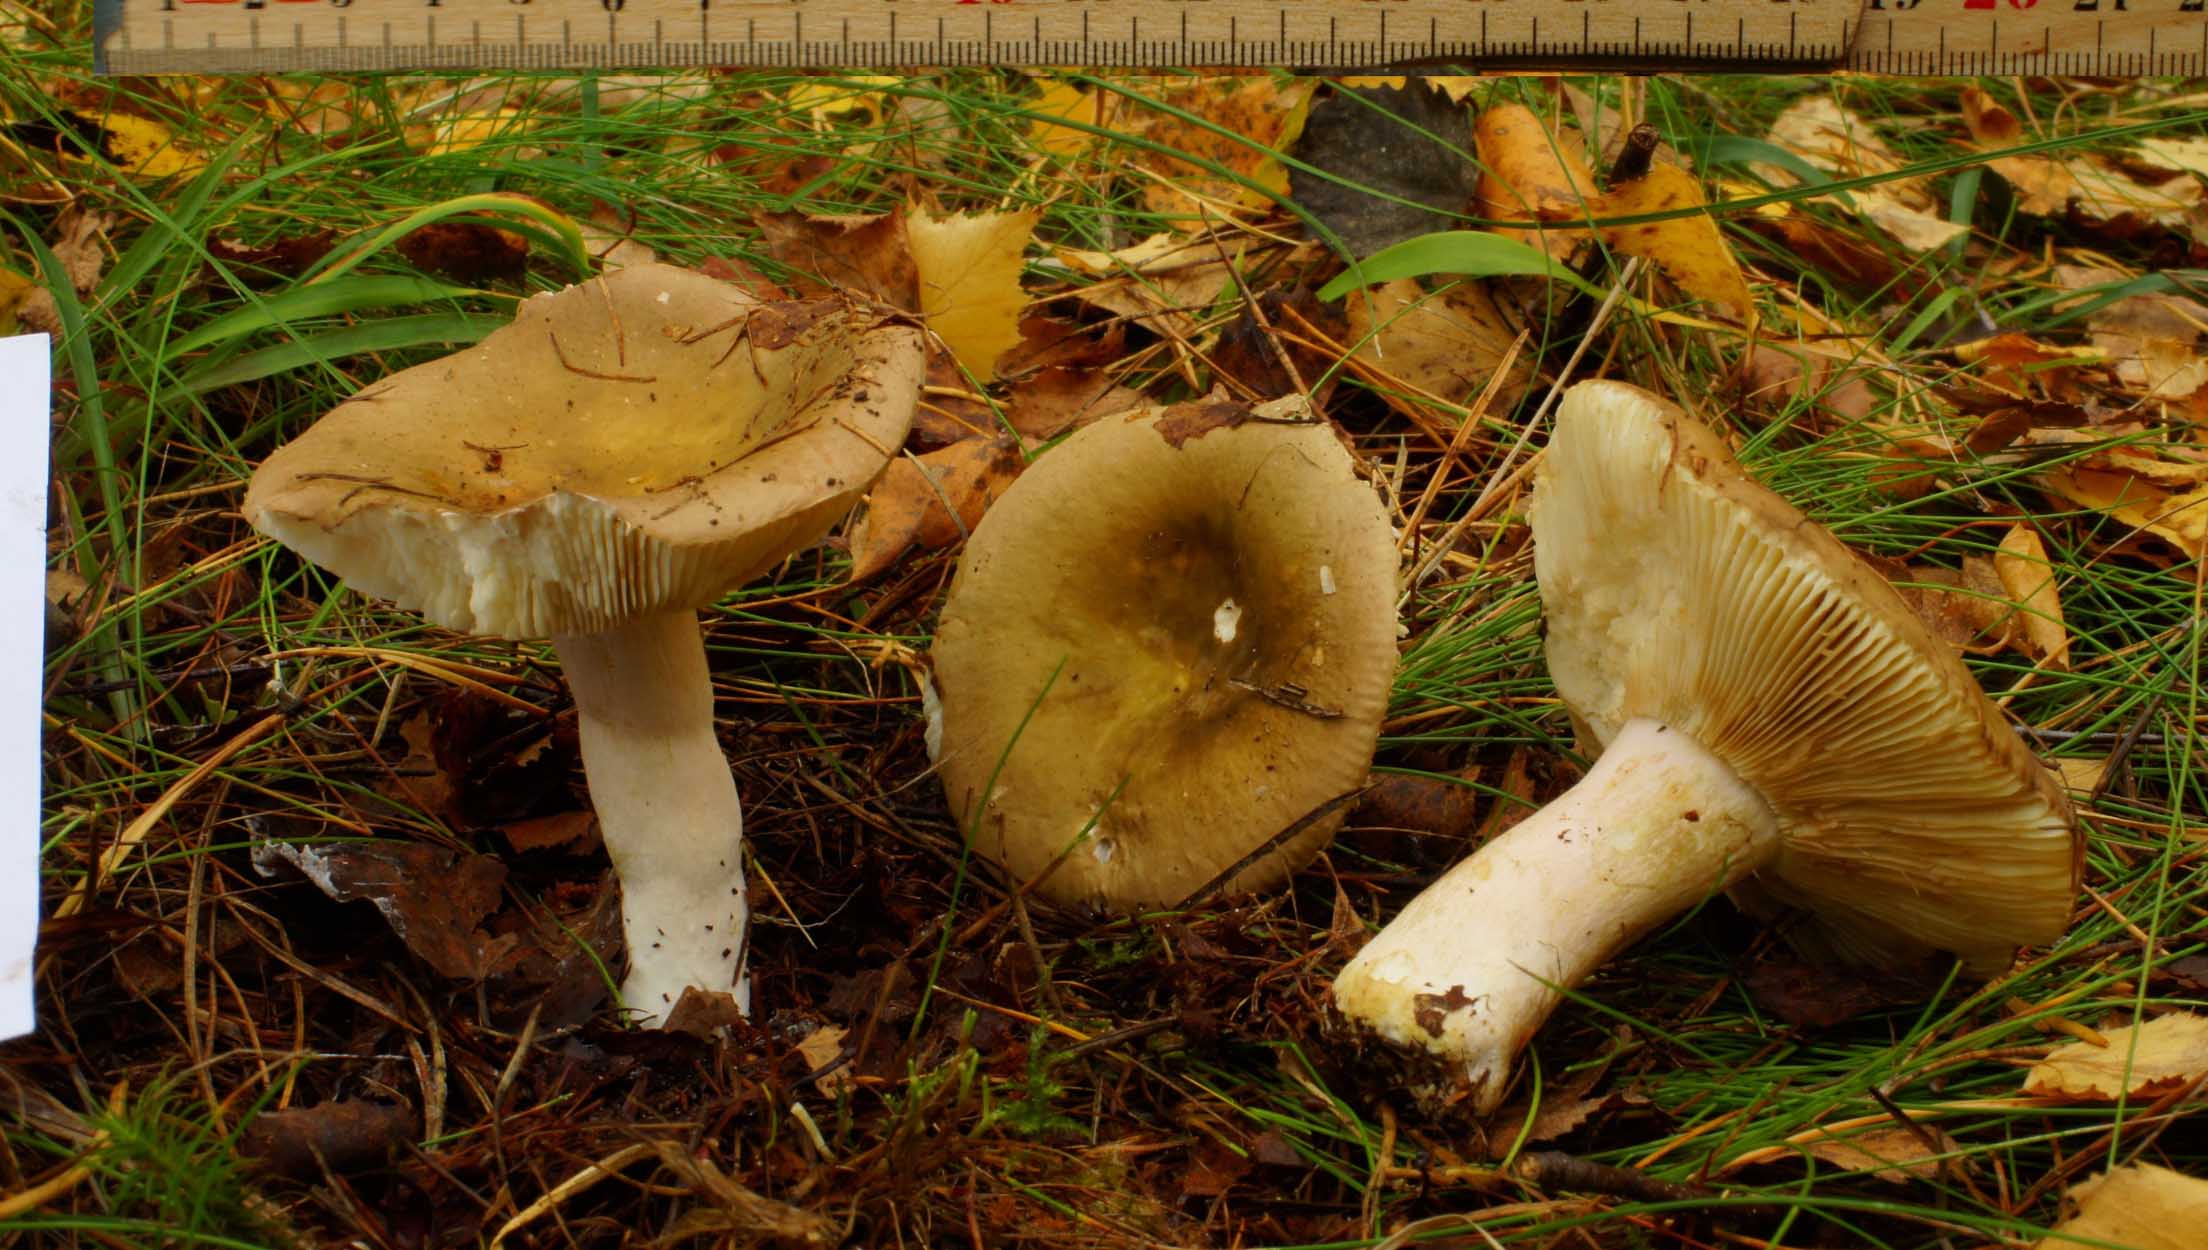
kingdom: Fungi
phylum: Basidiomycota
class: Agaricomycetes
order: Russulales
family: Russulaceae
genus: Russula
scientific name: Russula clavipes
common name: olivengrøn skørhat
